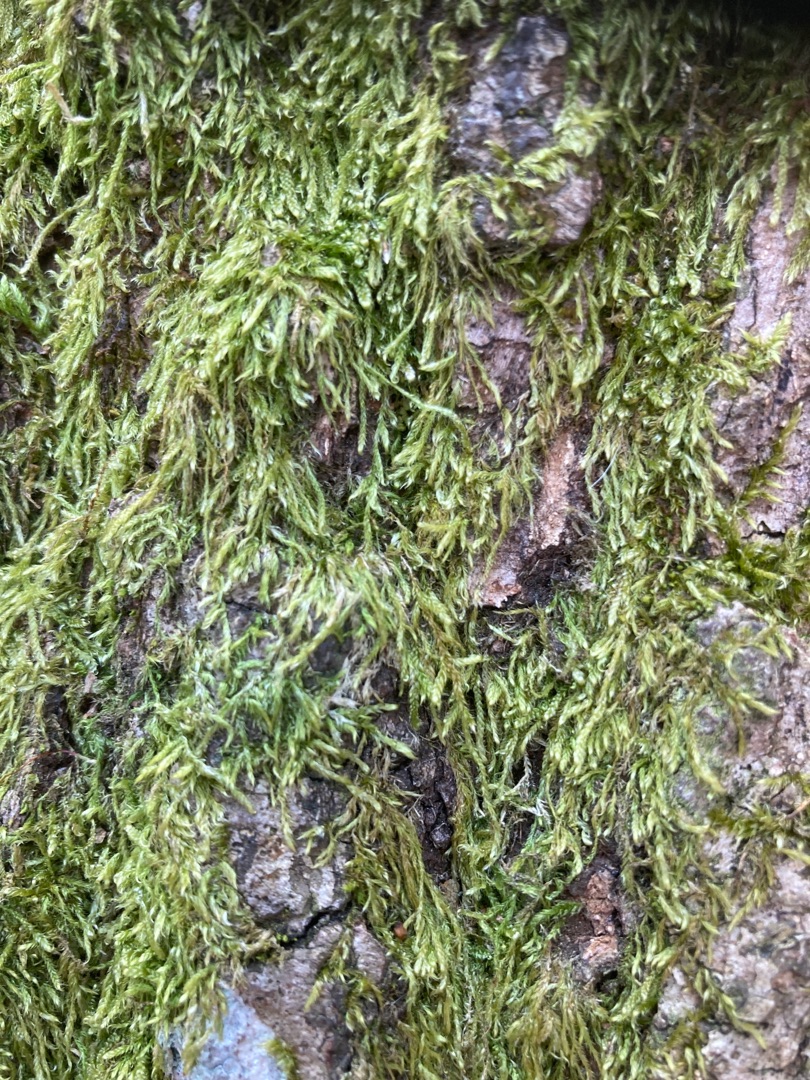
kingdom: Plantae
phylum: Bryophyta
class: Bryopsida
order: Hypnales
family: Hypnaceae
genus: Hypnum
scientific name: Hypnum
